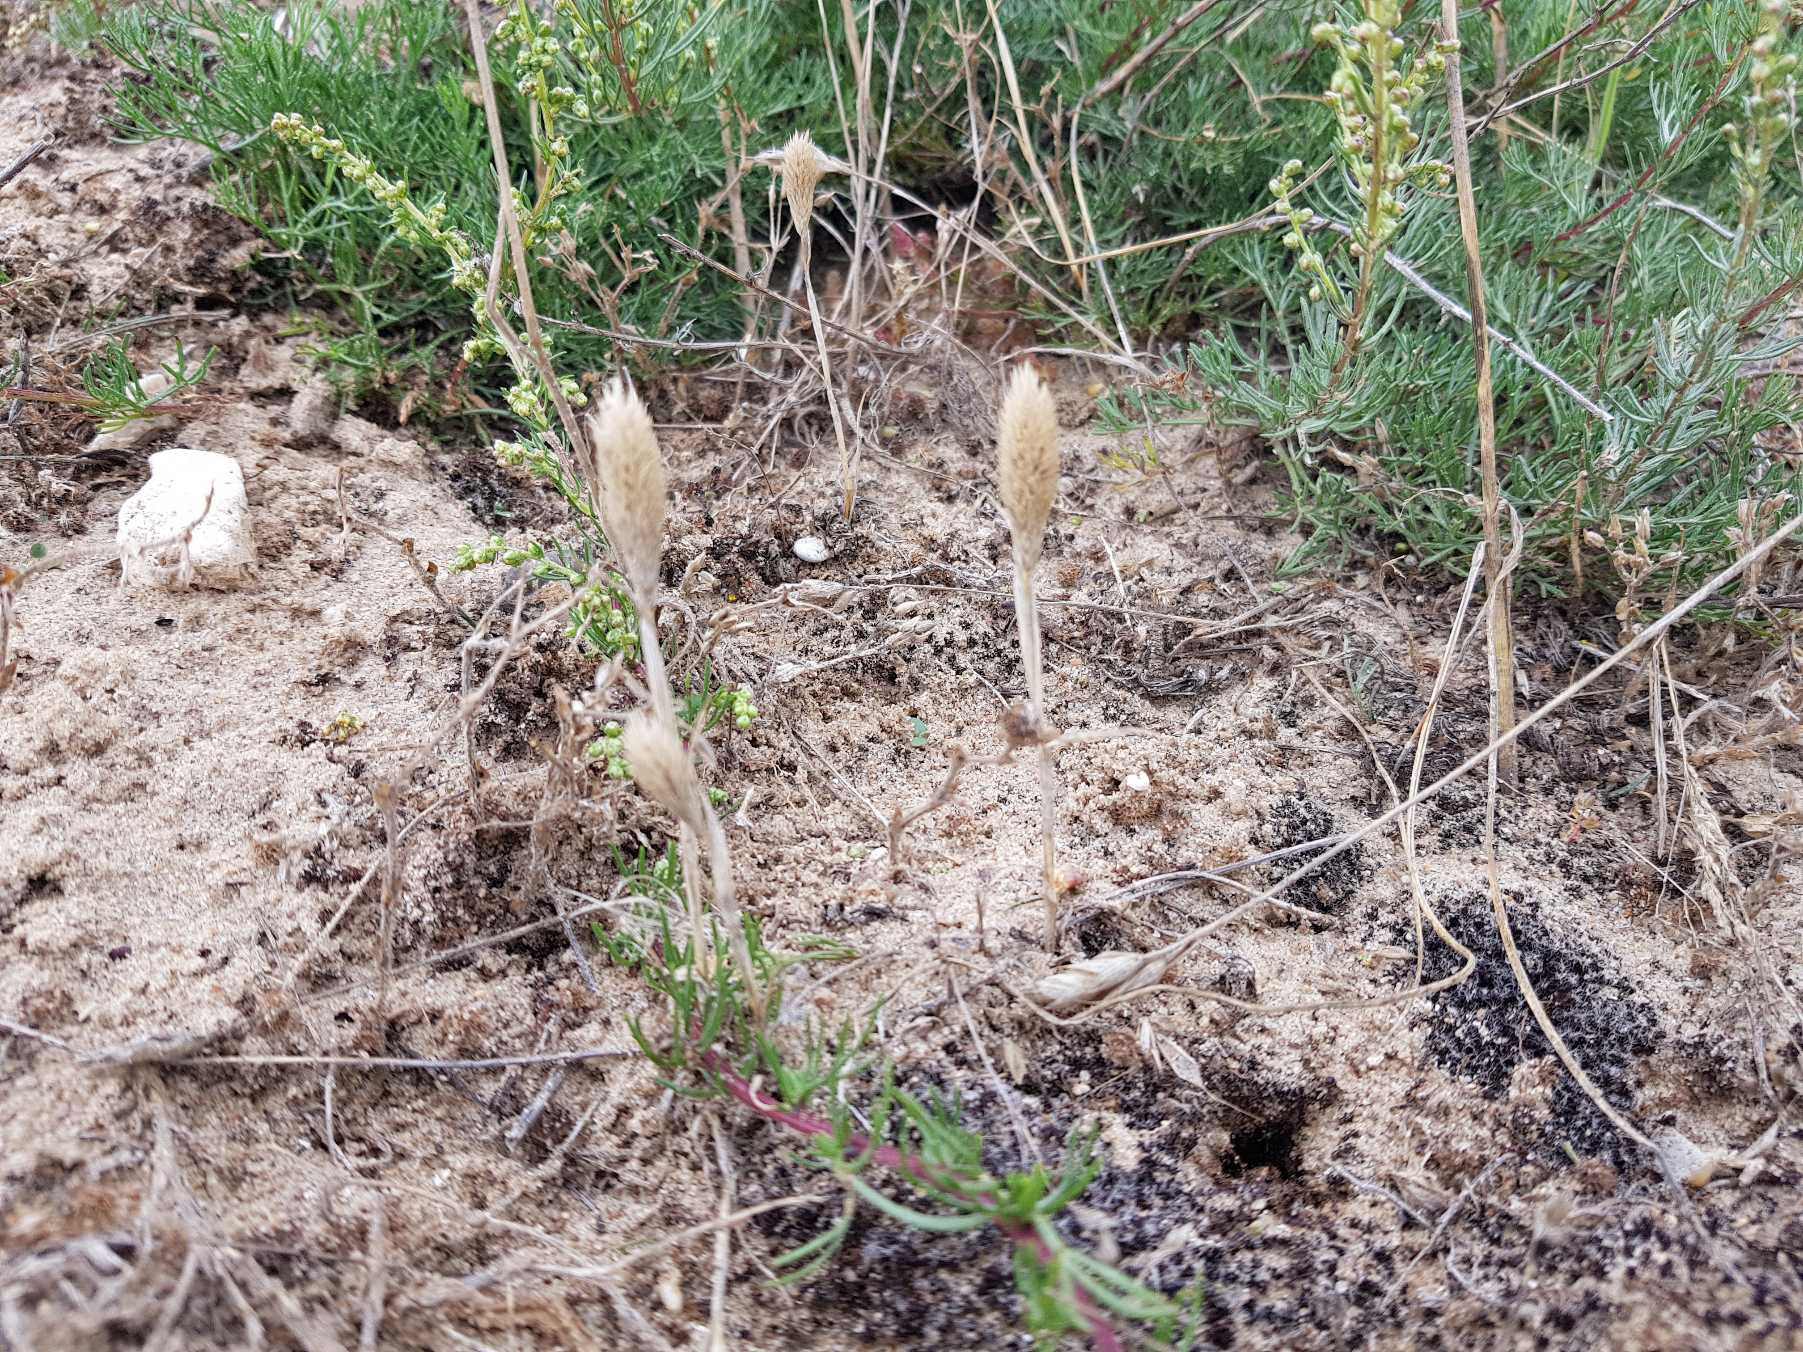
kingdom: Plantae
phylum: Tracheophyta
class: Liliopsida
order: Poales
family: Poaceae
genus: Phleum
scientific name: Phleum arenarium
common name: Sand-rottehale
